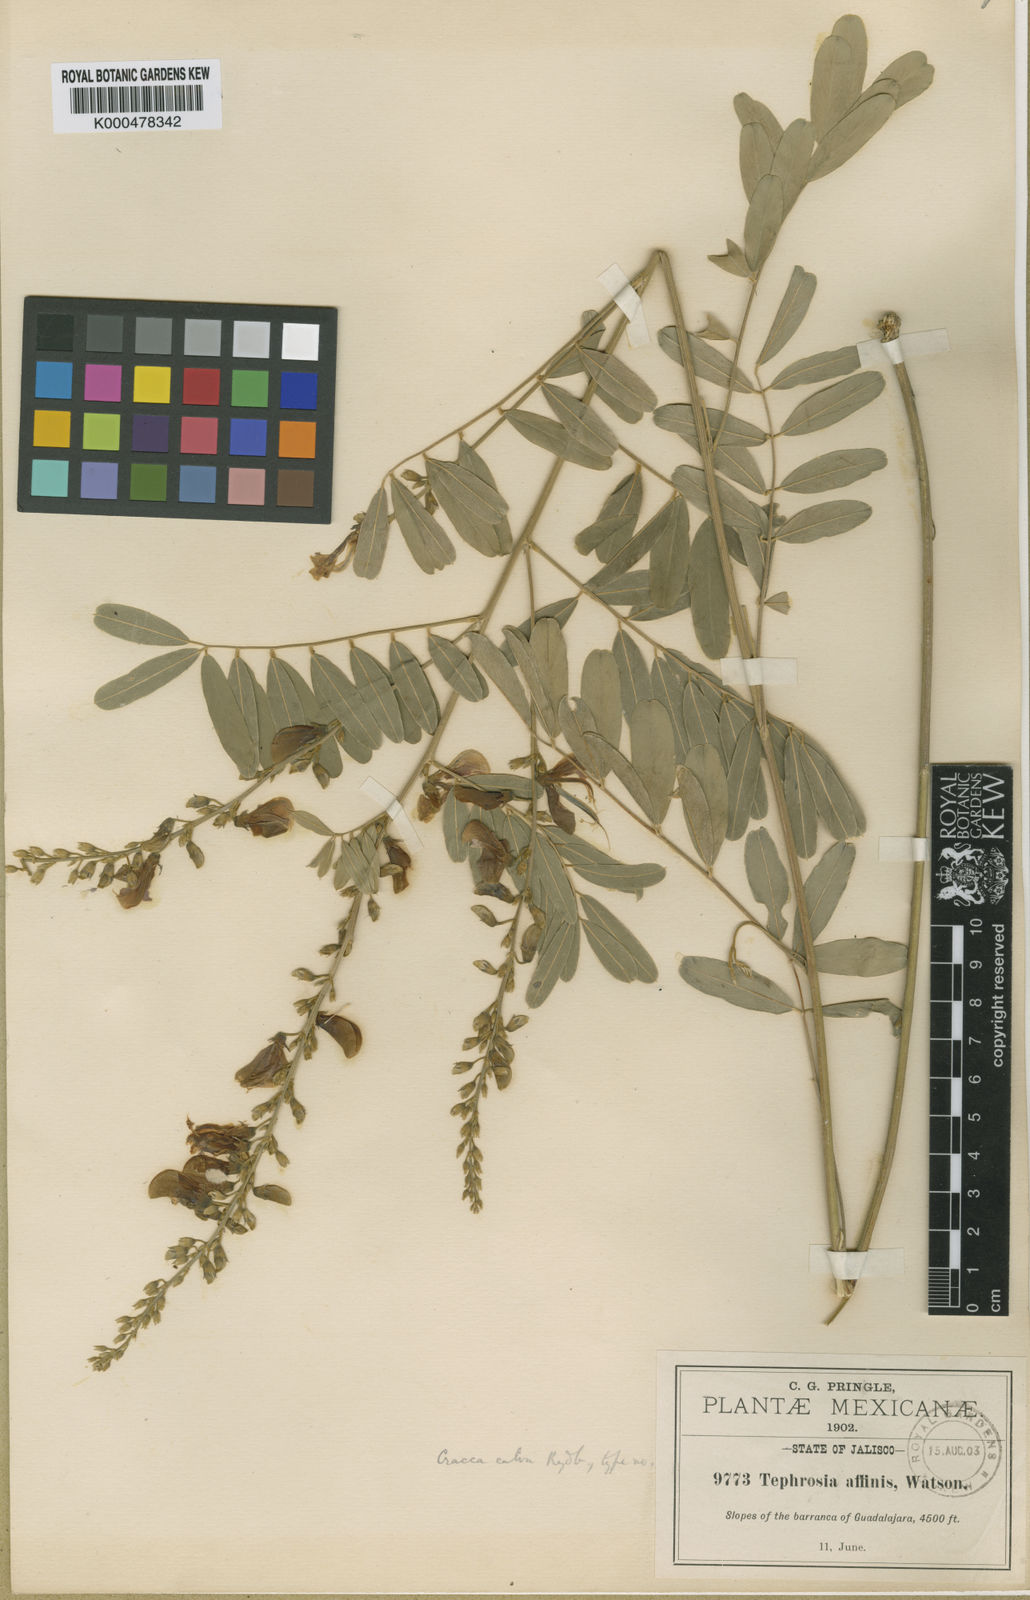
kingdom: Plantae
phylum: Tracheophyta
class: Magnoliopsida
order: Fabales
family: Fabaceae
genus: Tephrosia
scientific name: Tephrosia
